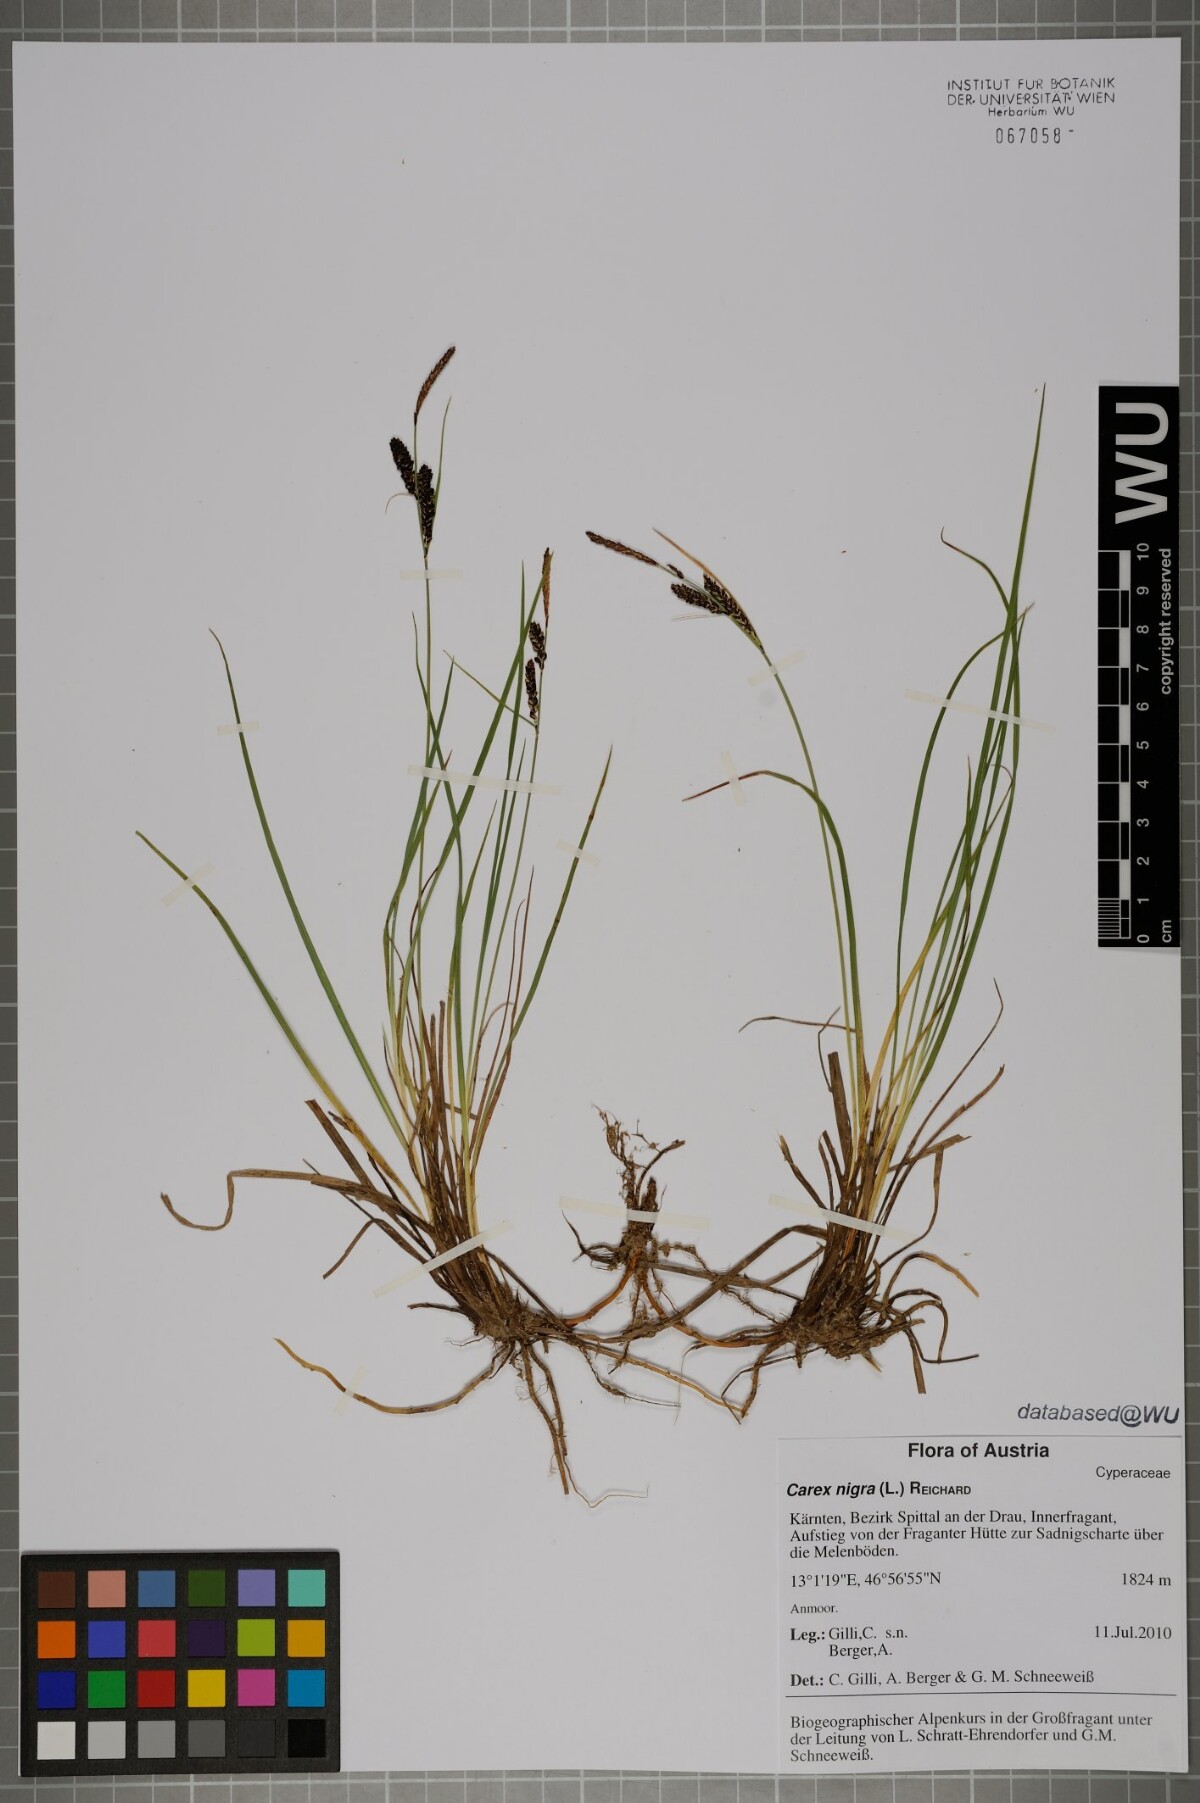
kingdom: Plantae
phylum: Tracheophyta
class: Liliopsida
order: Poales
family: Cyperaceae
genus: Carex
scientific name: Carex nigra
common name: Common sedge
